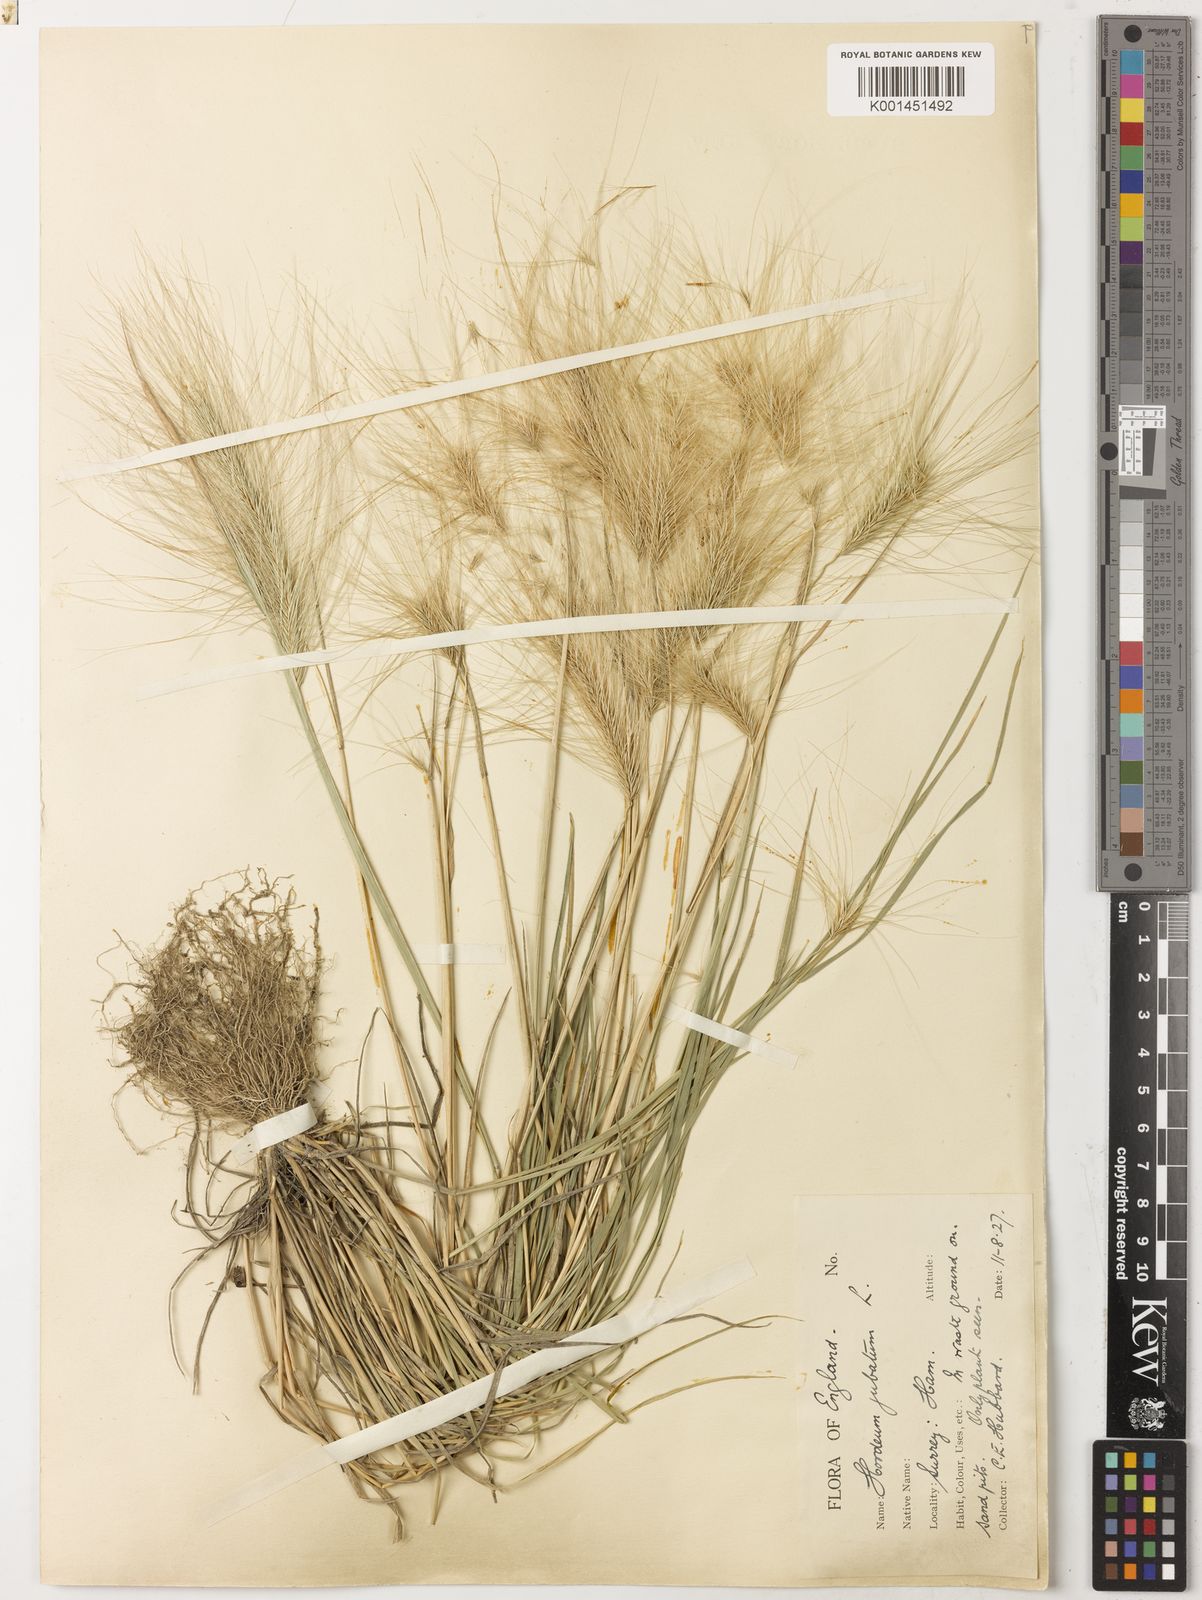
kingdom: Plantae
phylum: Tracheophyta
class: Liliopsida
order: Poales
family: Poaceae
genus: Hordeum
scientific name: Hordeum jubatum
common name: Foxtail barley
